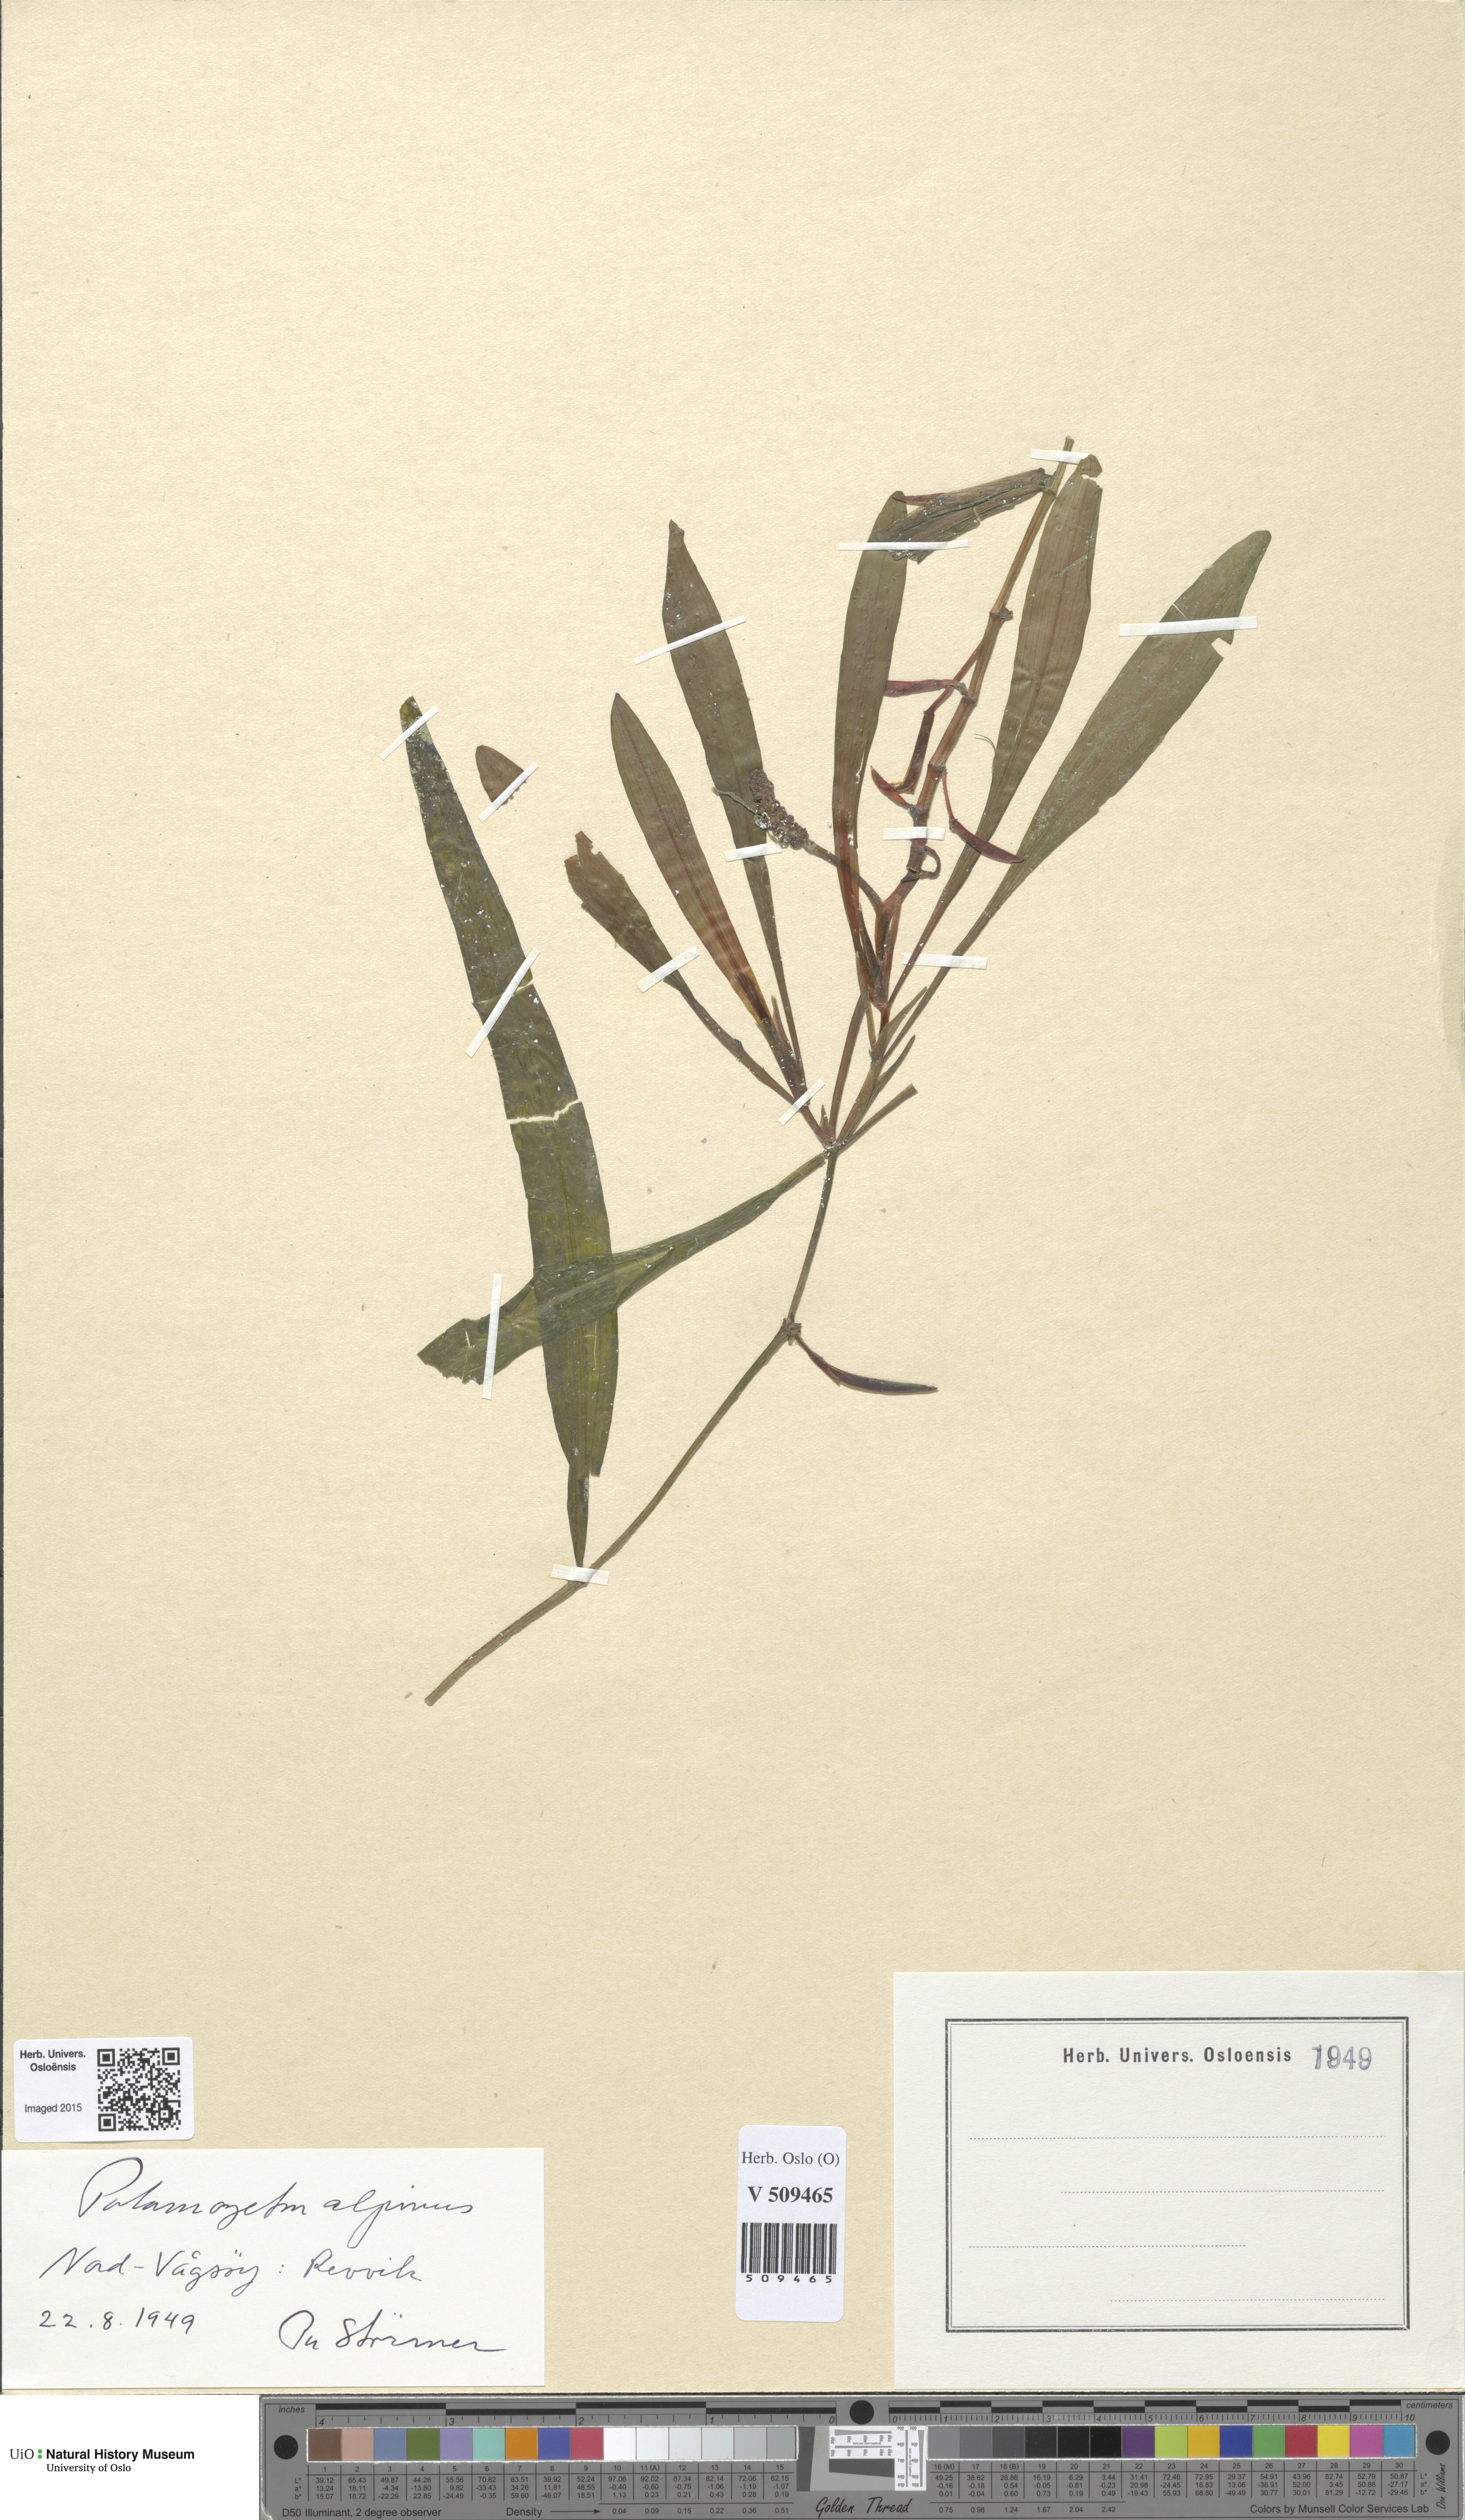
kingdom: Plantae
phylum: Tracheophyta
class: Liliopsida
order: Alismatales
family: Potamogetonaceae
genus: Potamogeton
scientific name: Potamogeton alpinus
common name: Red pondweed
